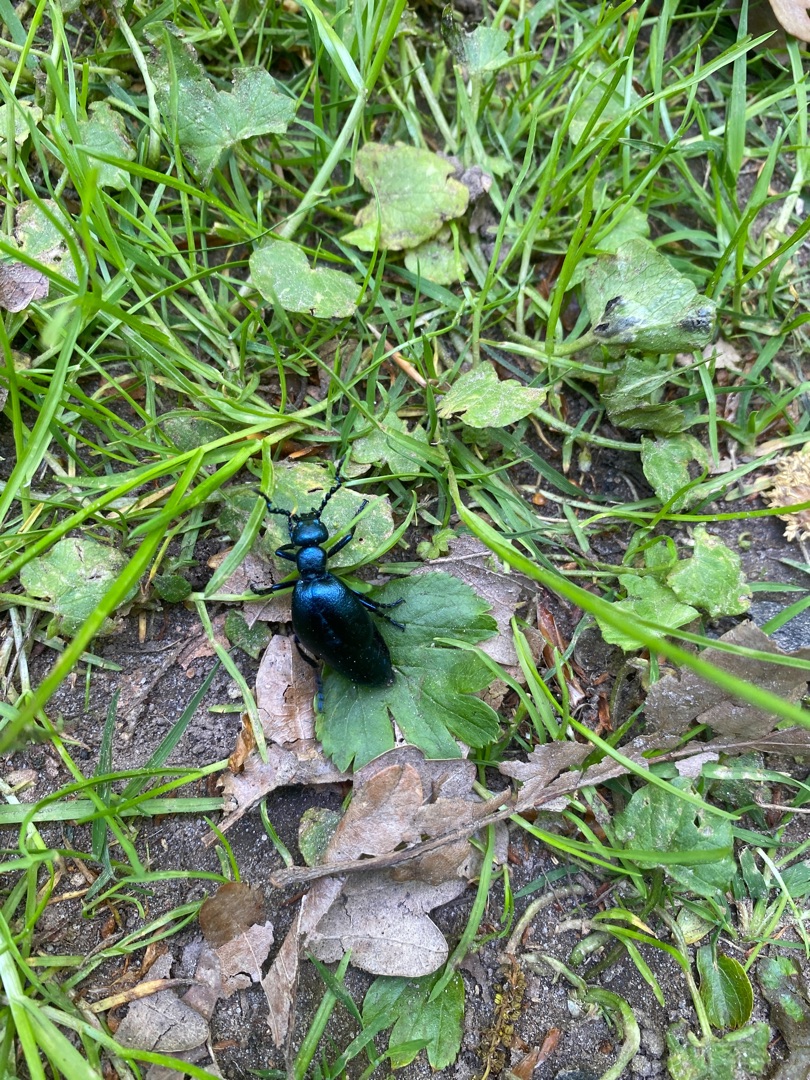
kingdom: Animalia
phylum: Arthropoda
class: Insecta
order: Coleoptera
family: Meloidae
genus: Meloe
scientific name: Meloe violaceus
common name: Blå oliebille
